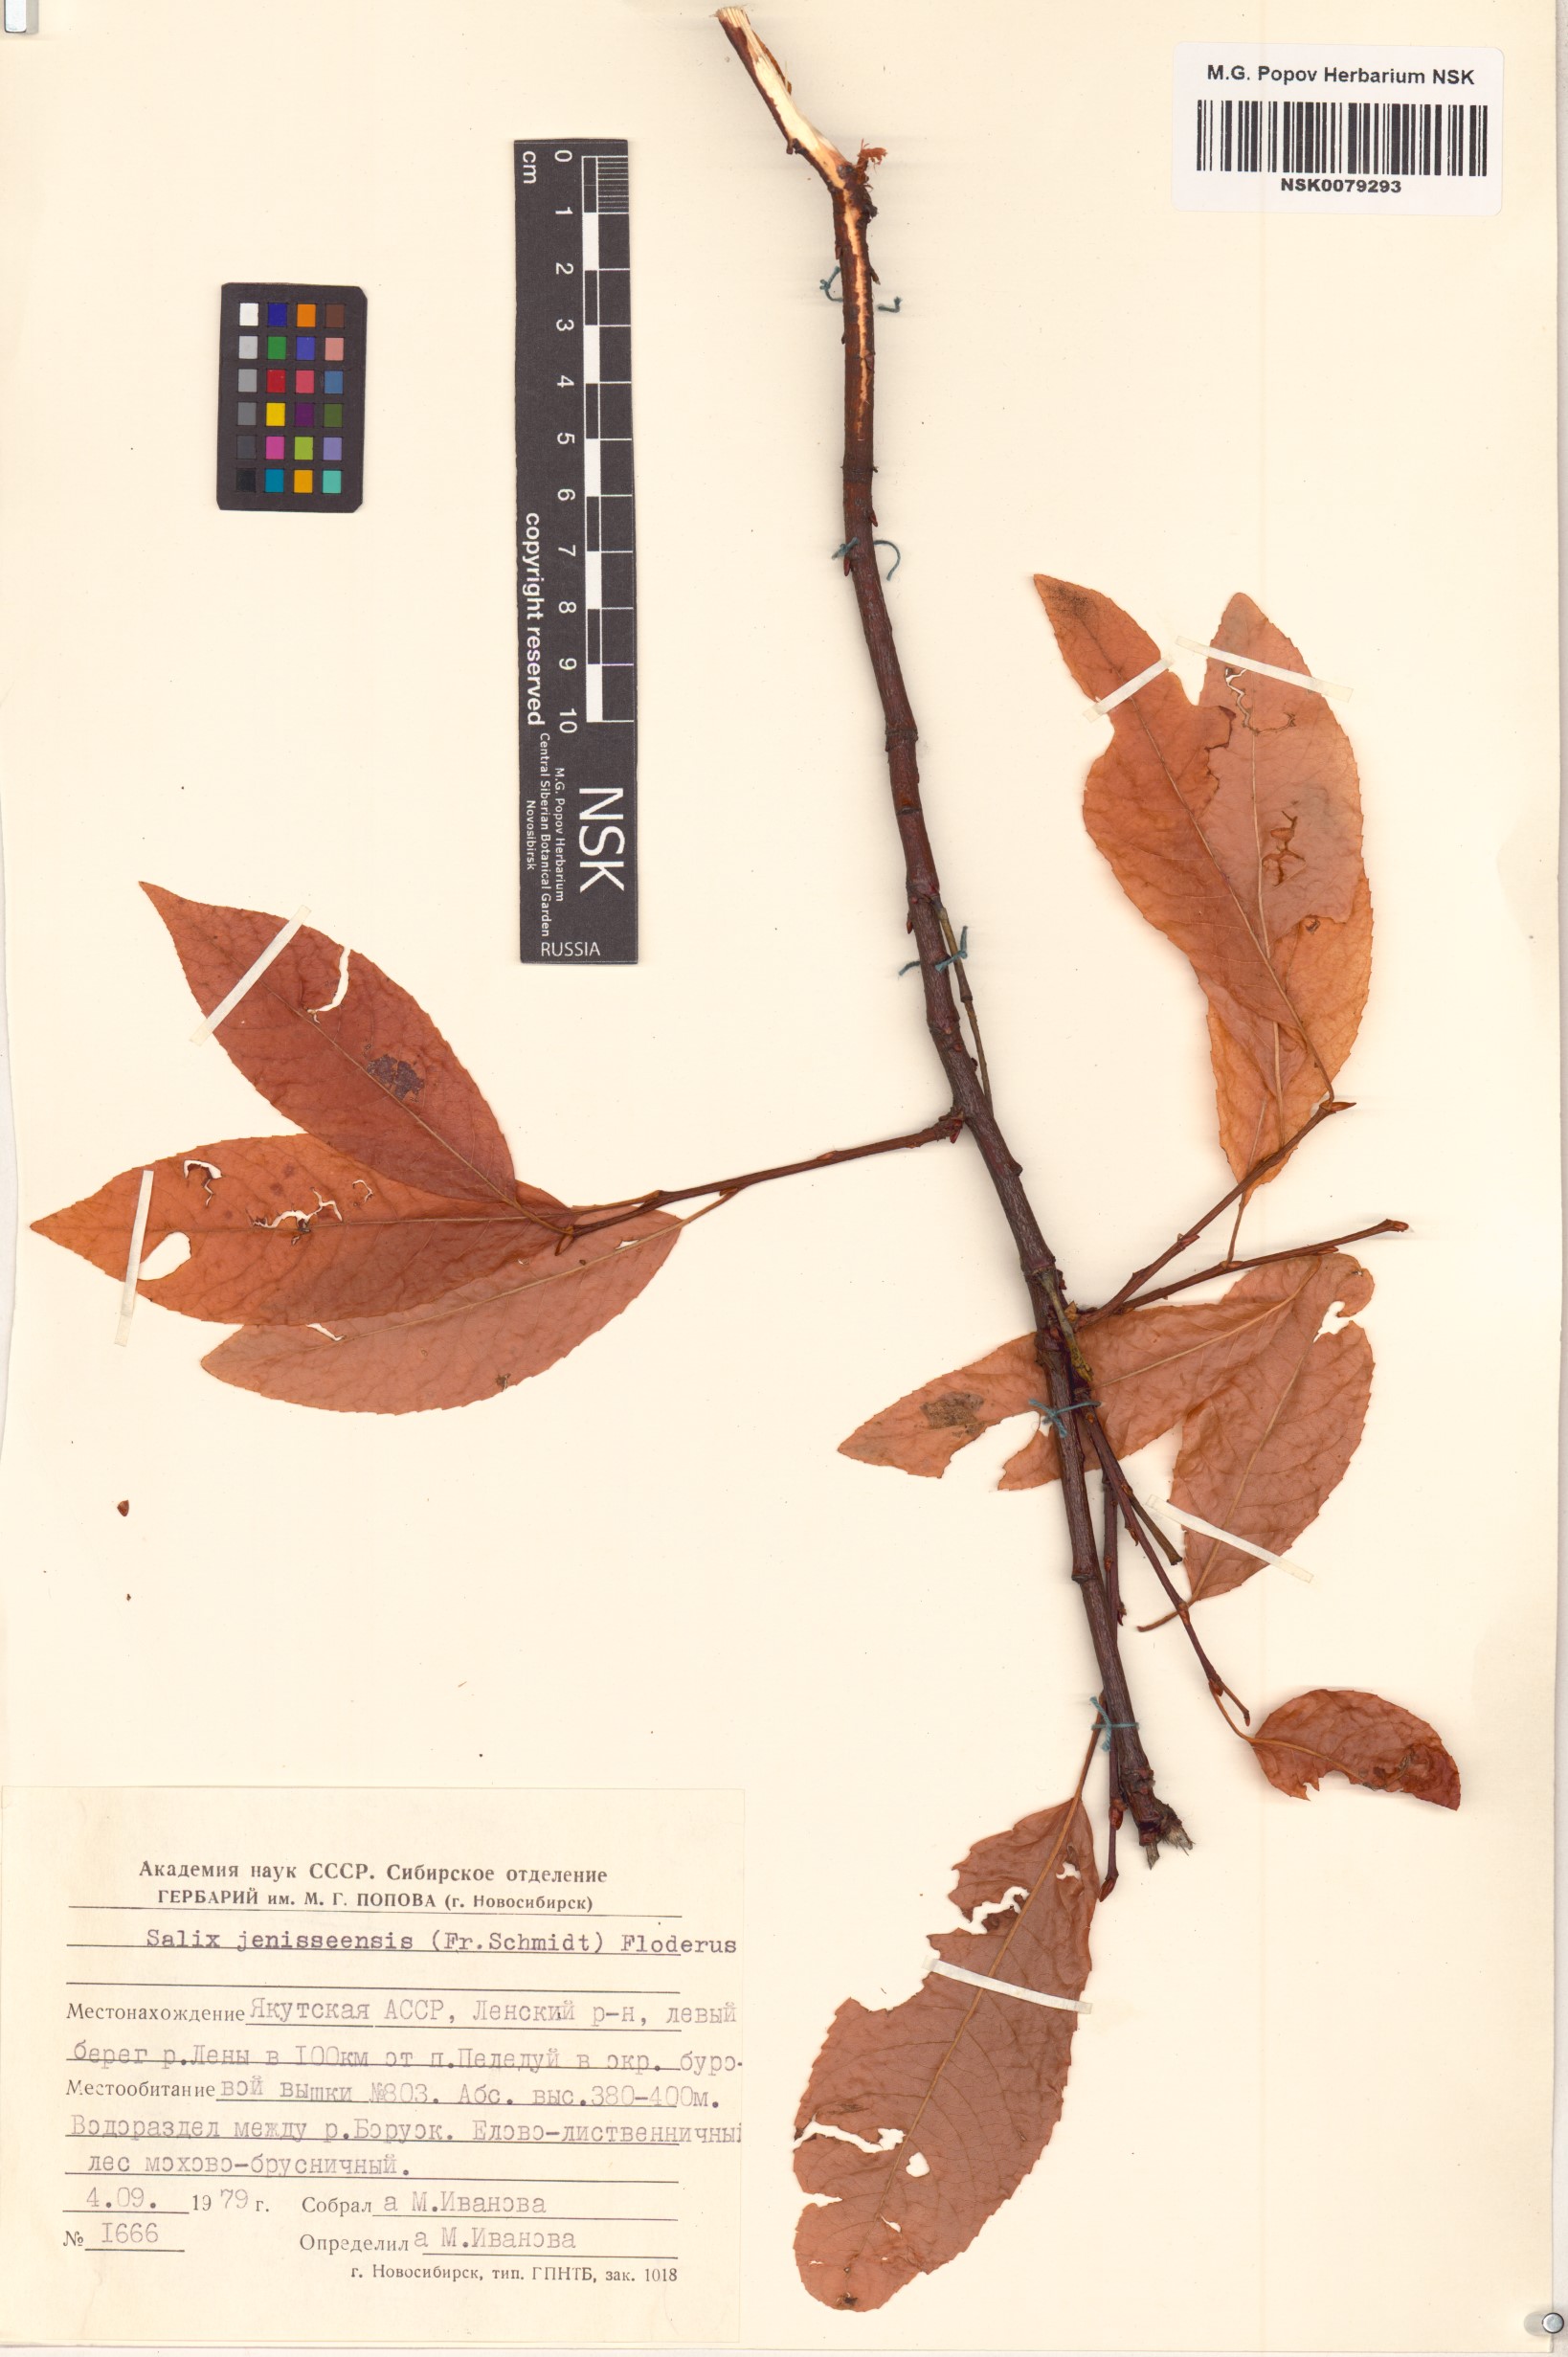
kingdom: Plantae
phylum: Tracheophyta
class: Magnoliopsida
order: Malpighiales
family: Salicaceae
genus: Salix
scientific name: Salix jenisseensis
